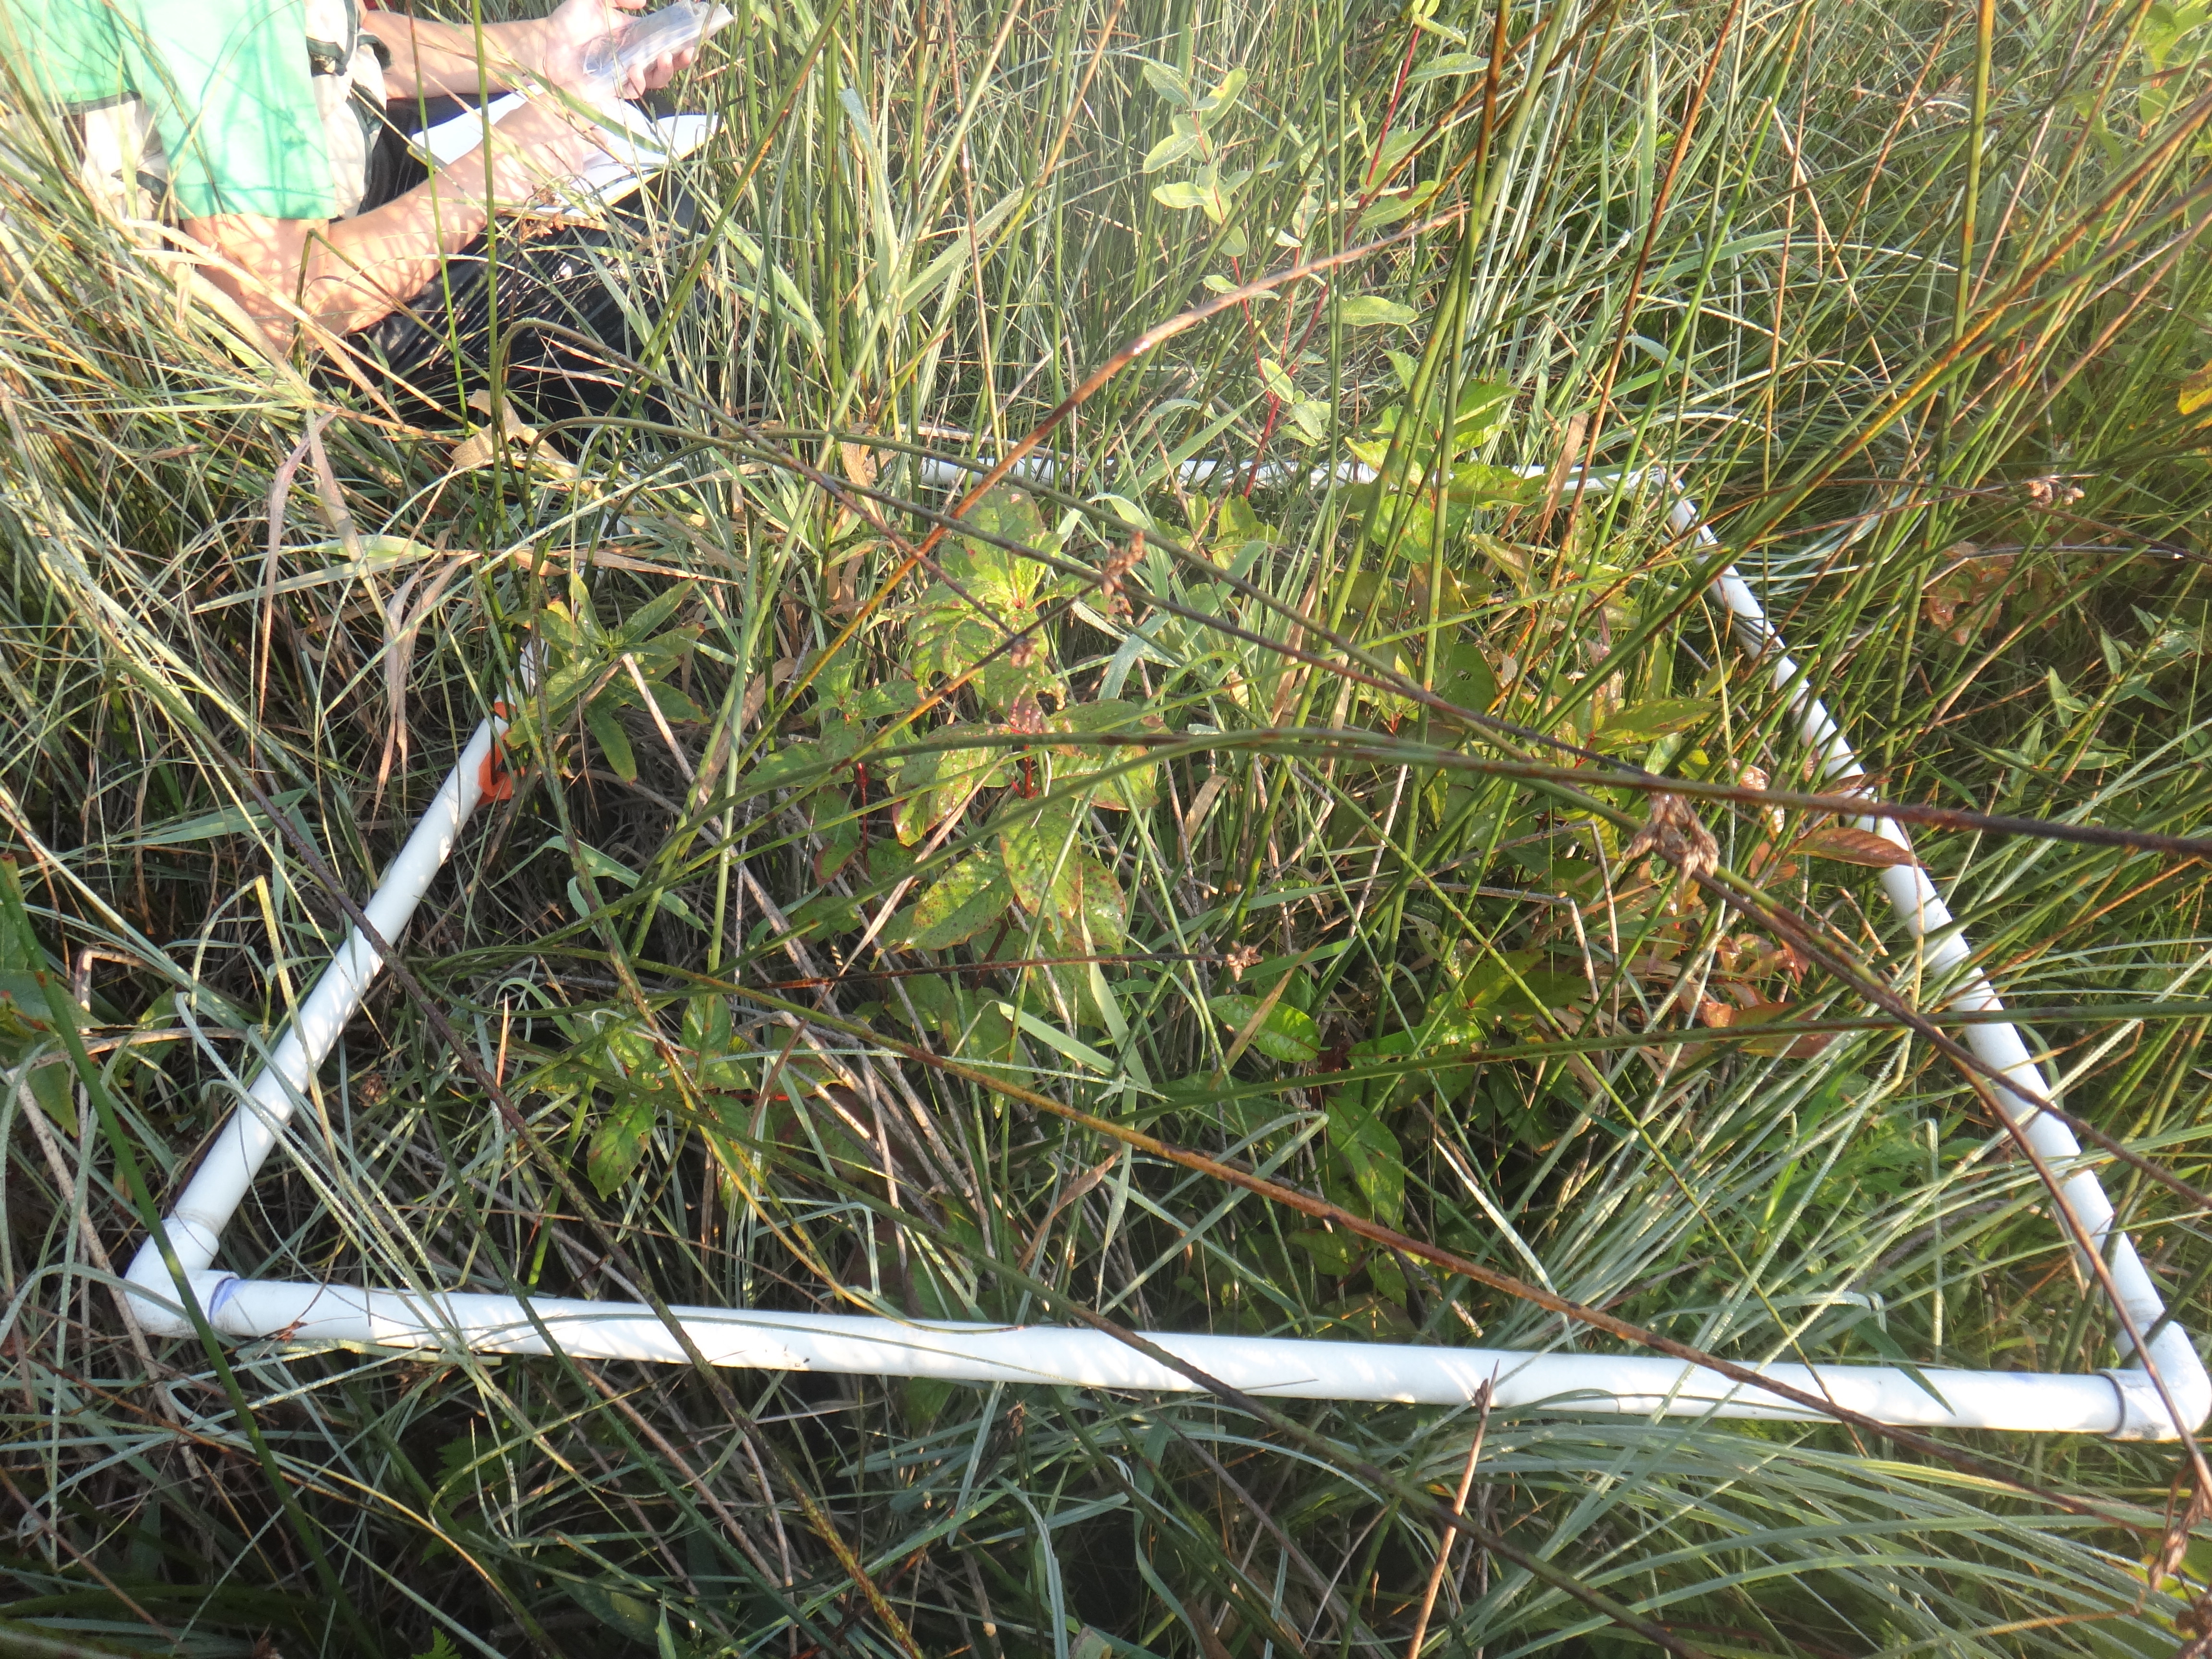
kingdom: Plantae
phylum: Tracheophyta
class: Magnoliopsida
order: Malpighiales
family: Hypericaceae
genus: Triadenum
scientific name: Triadenum fraseri
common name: Fraser's marsh st. johnswort
